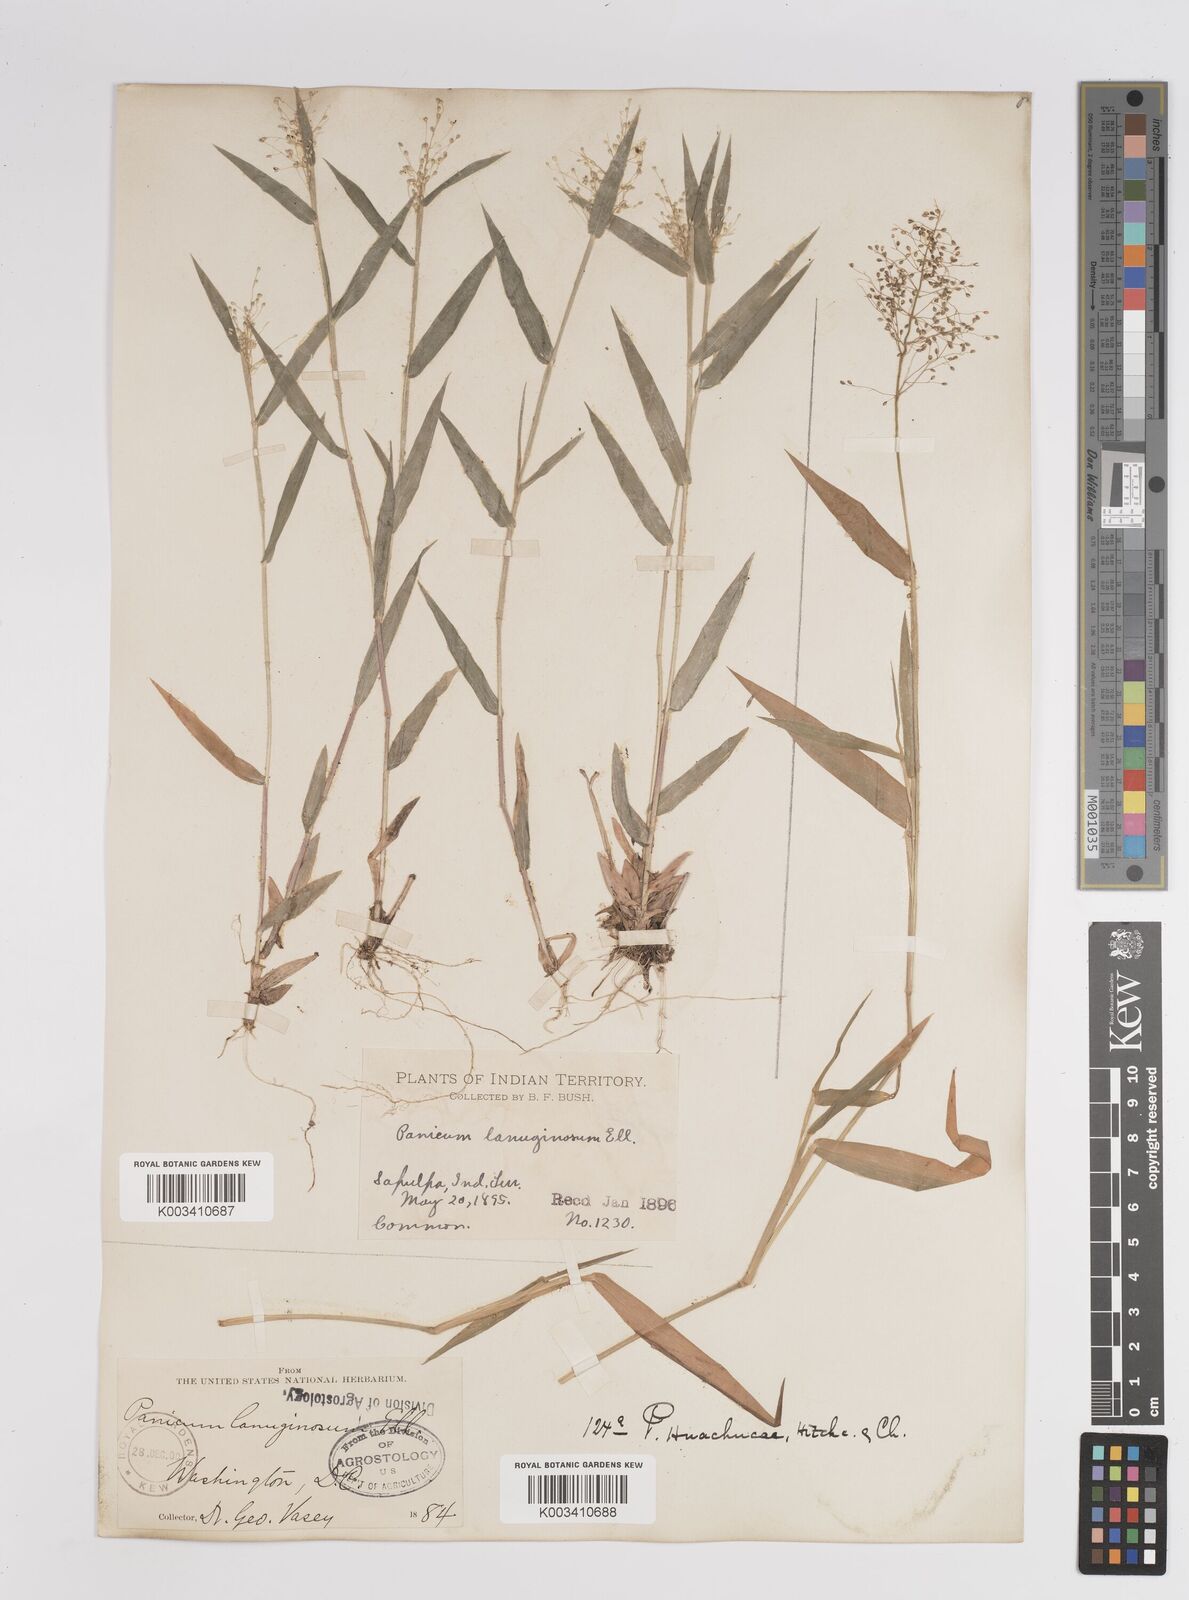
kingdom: Plantae
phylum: Tracheophyta
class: Liliopsida
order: Poales
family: Poaceae
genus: Dichanthelium
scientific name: Dichanthelium lanuginosum
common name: Woolly panicgrass
